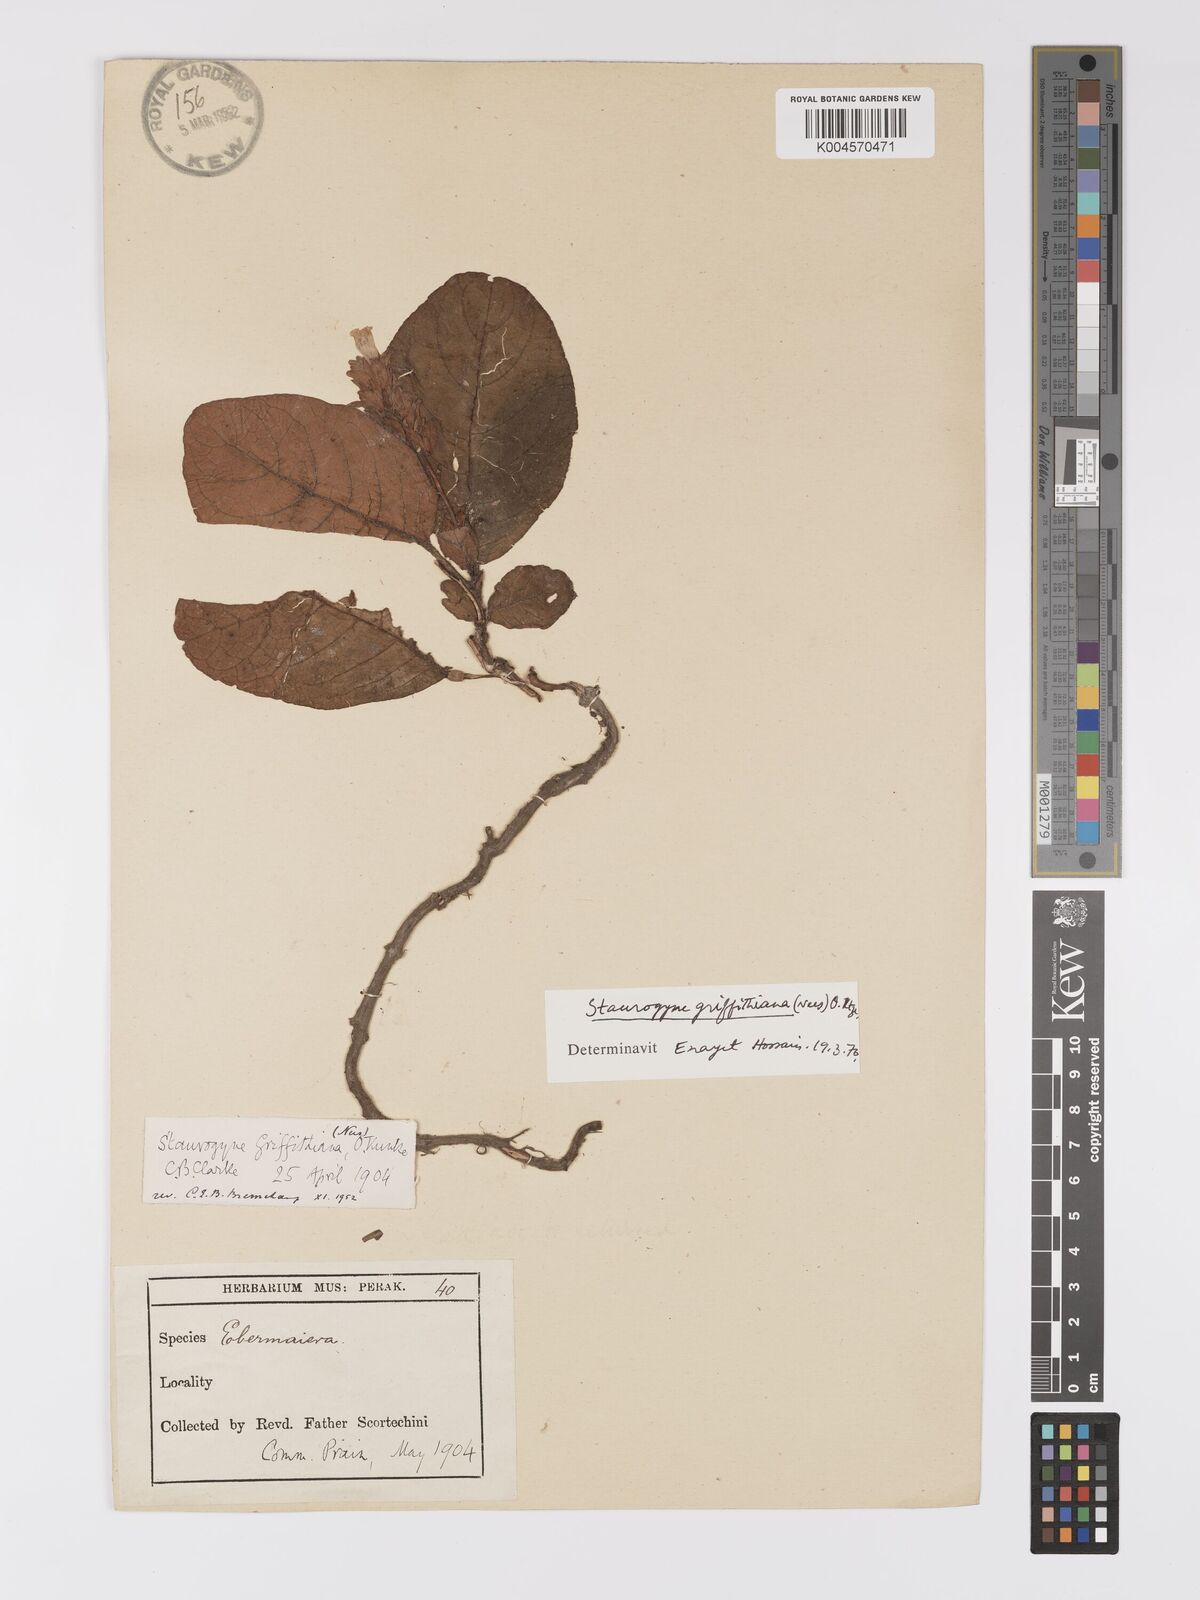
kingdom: Plantae
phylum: Tracheophyta
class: Magnoliopsida
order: Lamiales
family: Acanthaceae
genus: Staurogyne
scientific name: Staurogyne griffithiana
